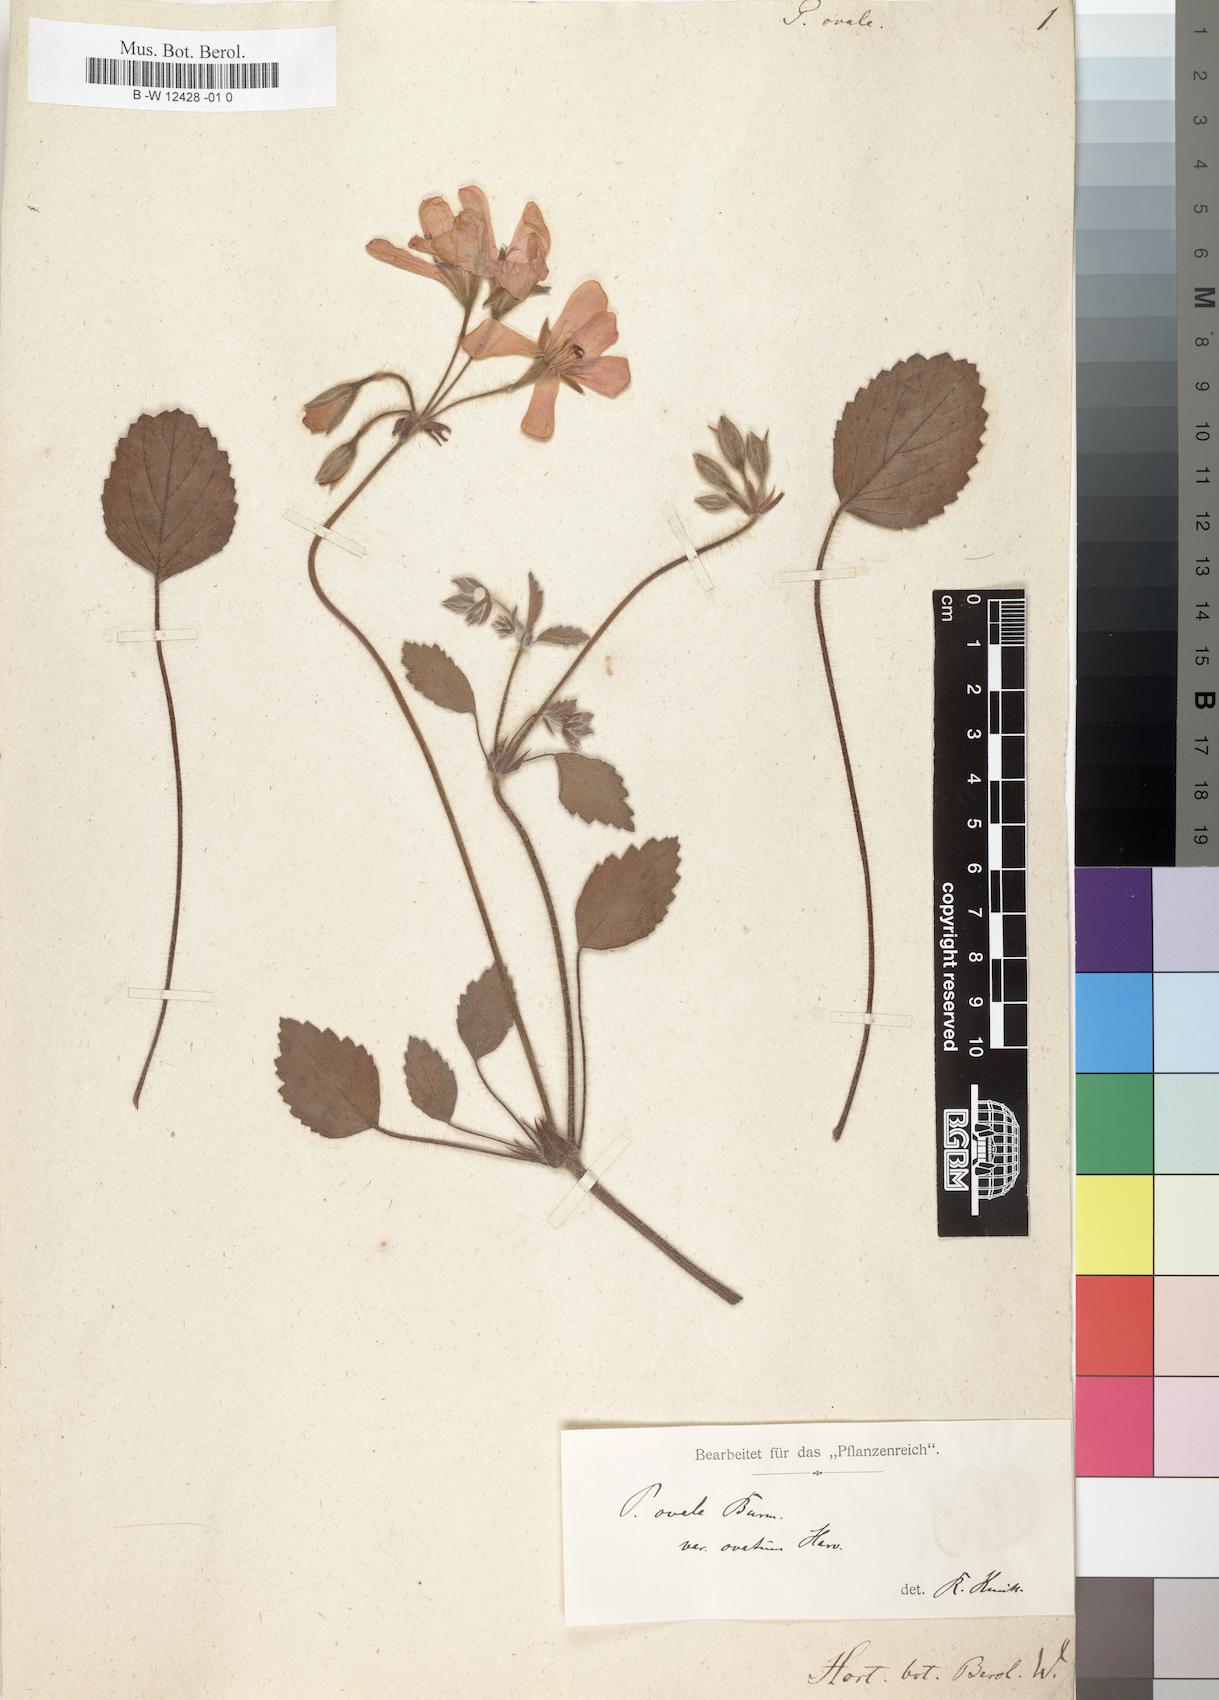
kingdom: Plantae
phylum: Tracheophyta
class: Magnoliopsida
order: Geraniales
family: Geraniaceae
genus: Pelargonium
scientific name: Pelargonium ovale
